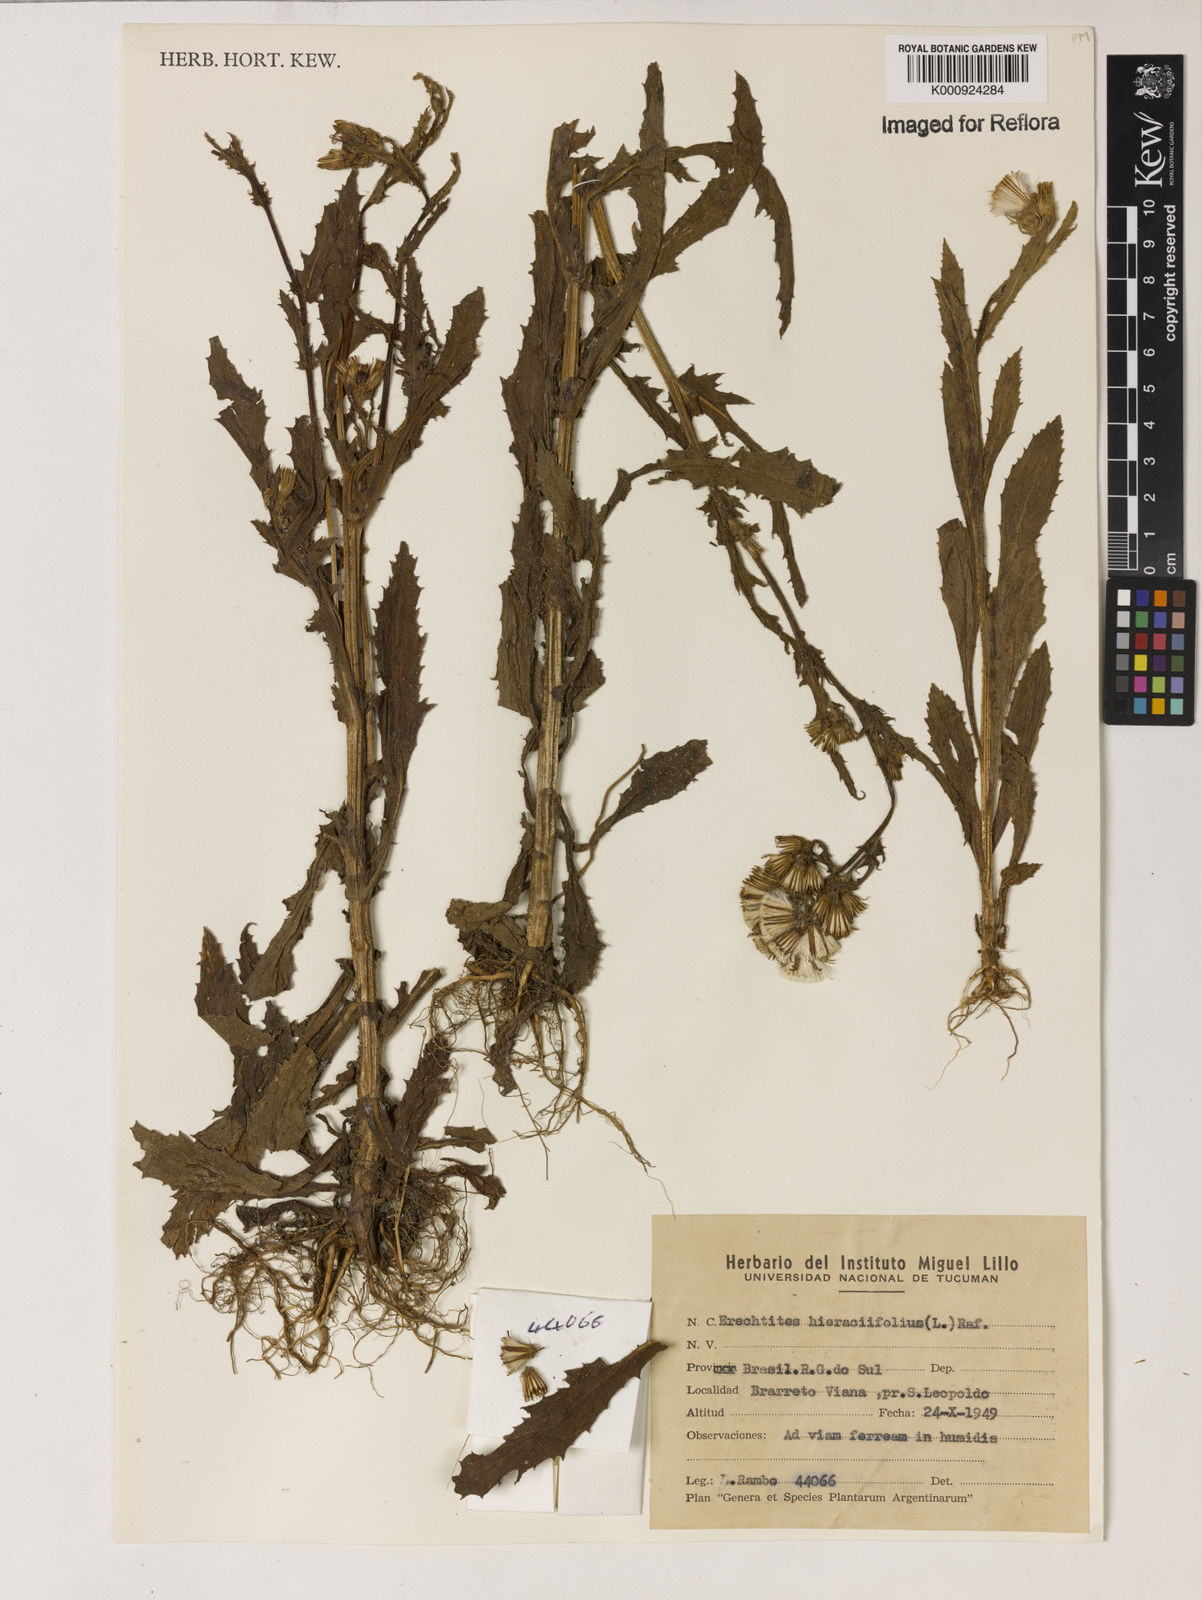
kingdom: Plantae
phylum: Tracheophyta
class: Magnoliopsida
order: Asterales
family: Asteraceae
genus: Erechtites
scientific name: Erechtites hieraciifolius
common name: American burnweed
